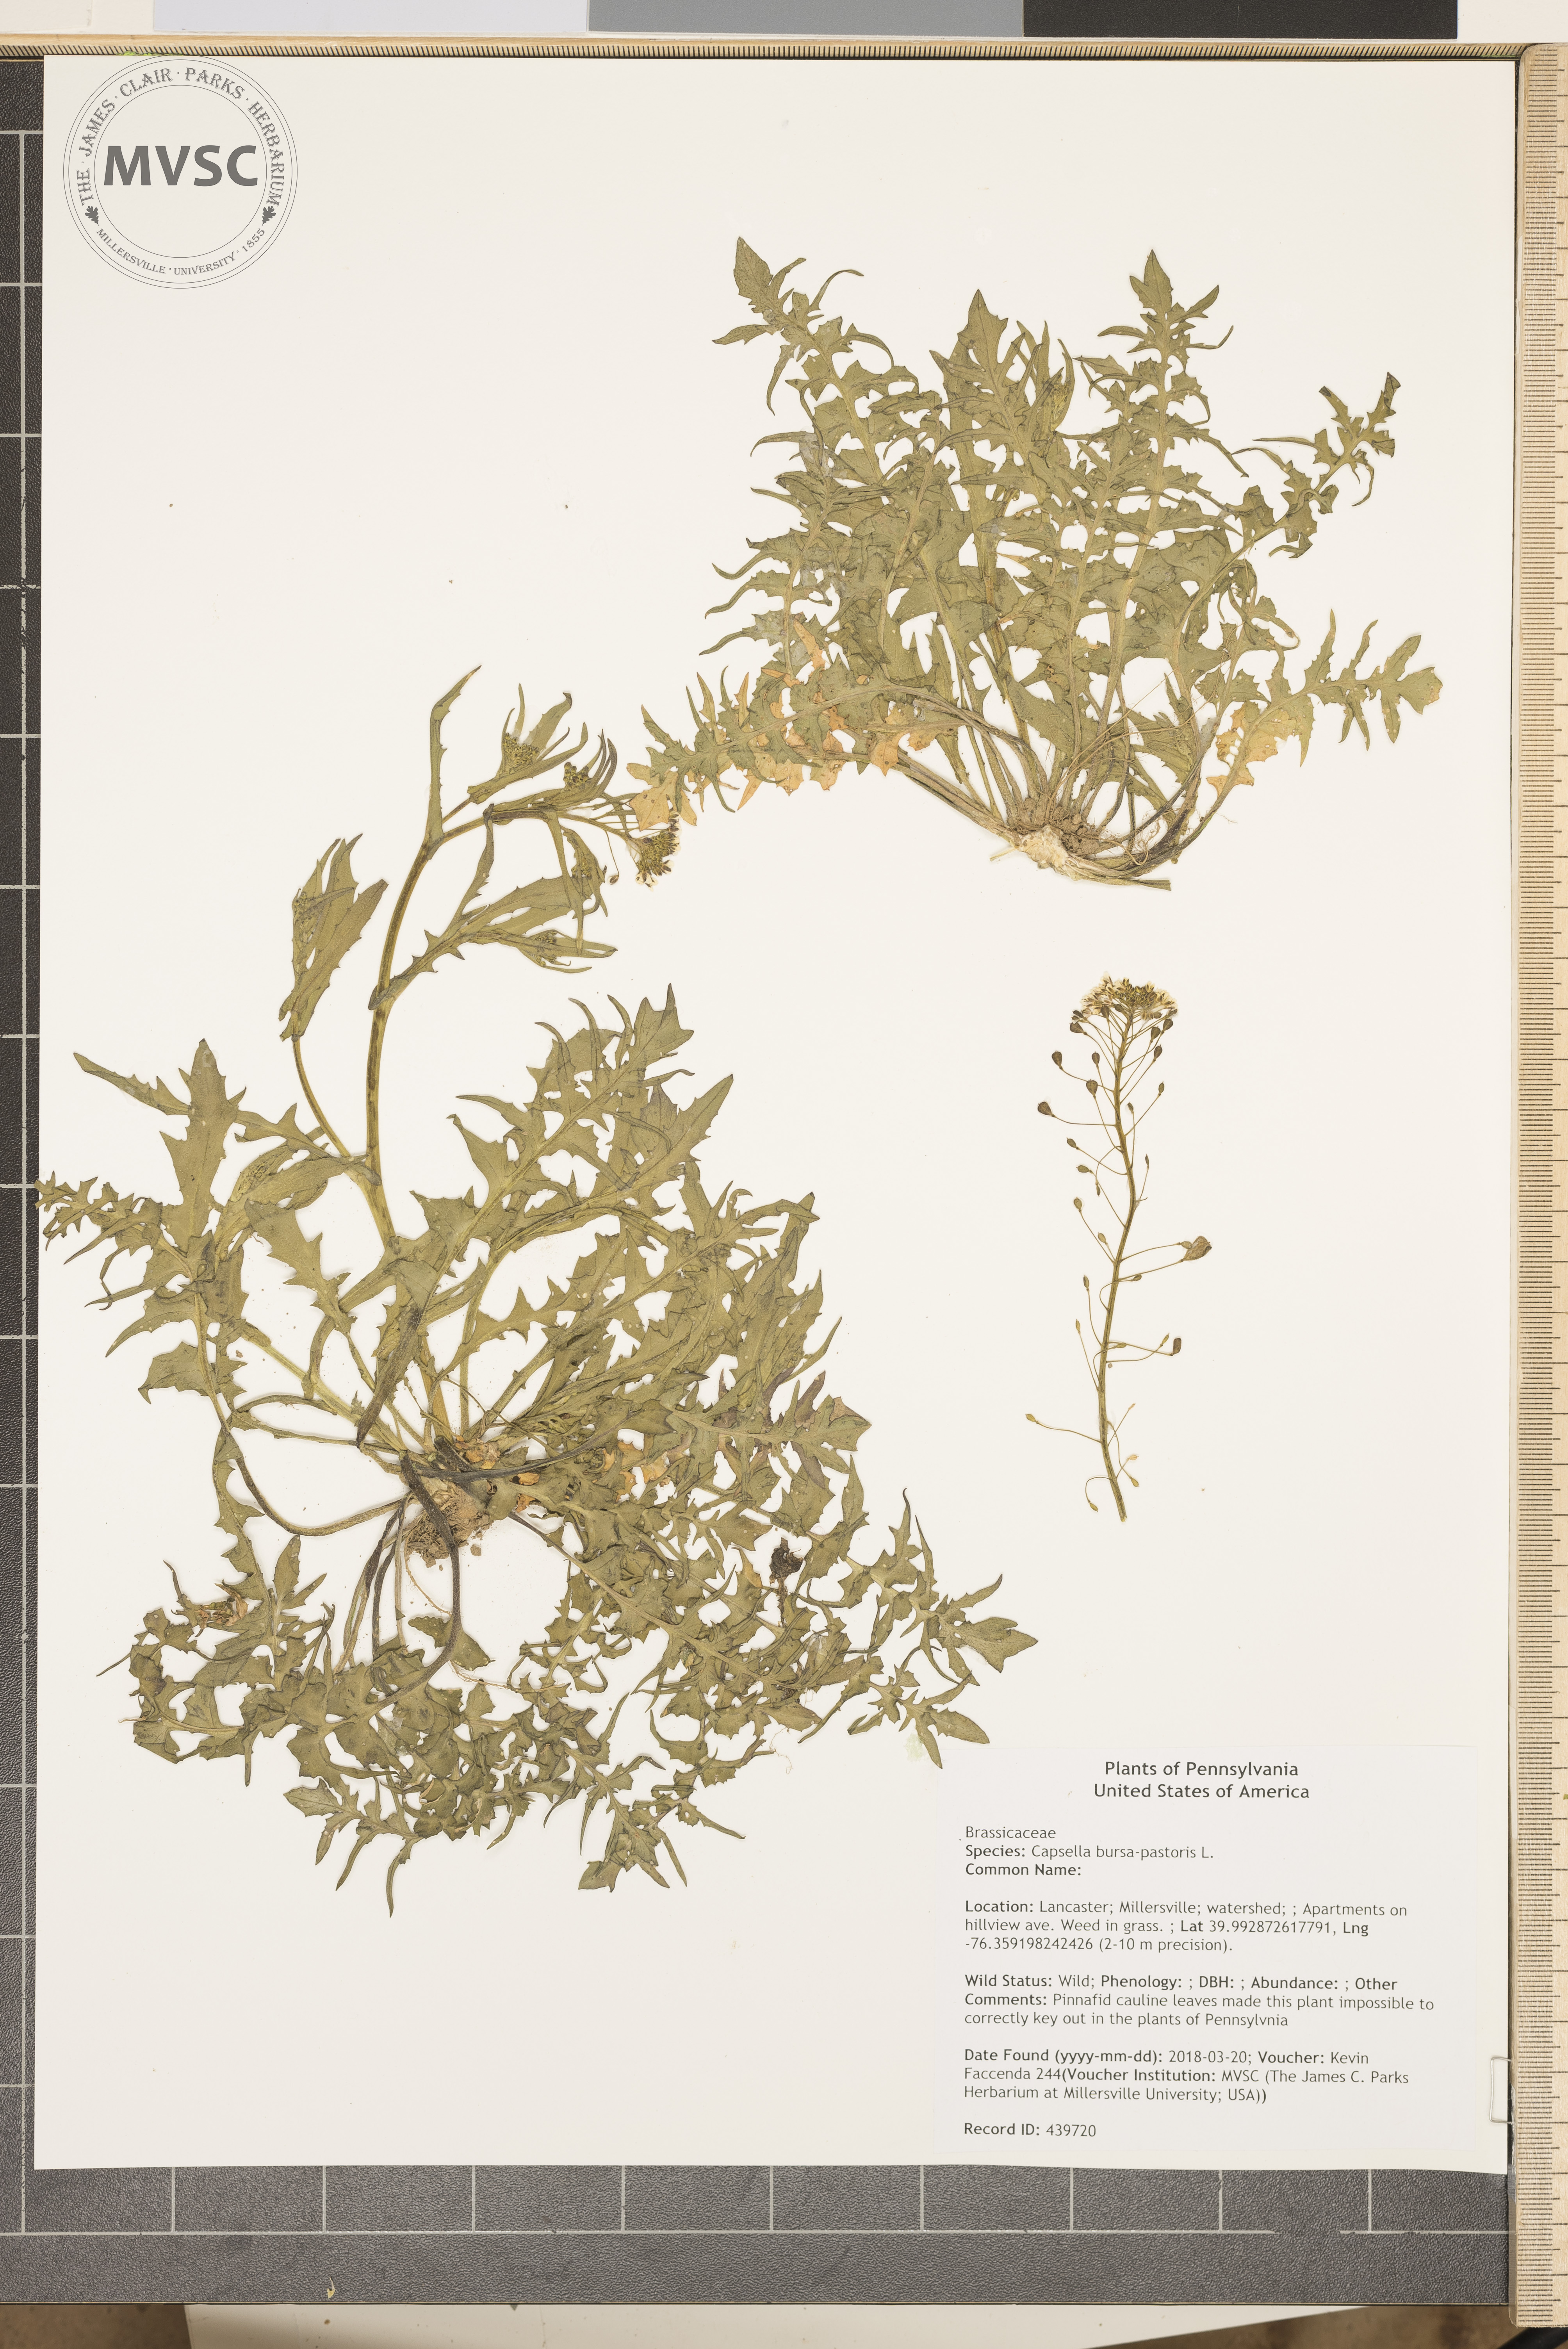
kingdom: Plantae
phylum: Tracheophyta
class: Magnoliopsida
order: Brassicales
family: Brassicaceae
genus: Capsella
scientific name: Capsella bursa-pastoris
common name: Shepherd's purse
